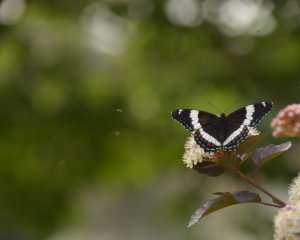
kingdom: Animalia
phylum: Arthropoda
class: Insecta
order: Lepidoptera
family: Nymphalidae
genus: Limenitis
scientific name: Limenitis arthemis
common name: Red-spotted Admiral
